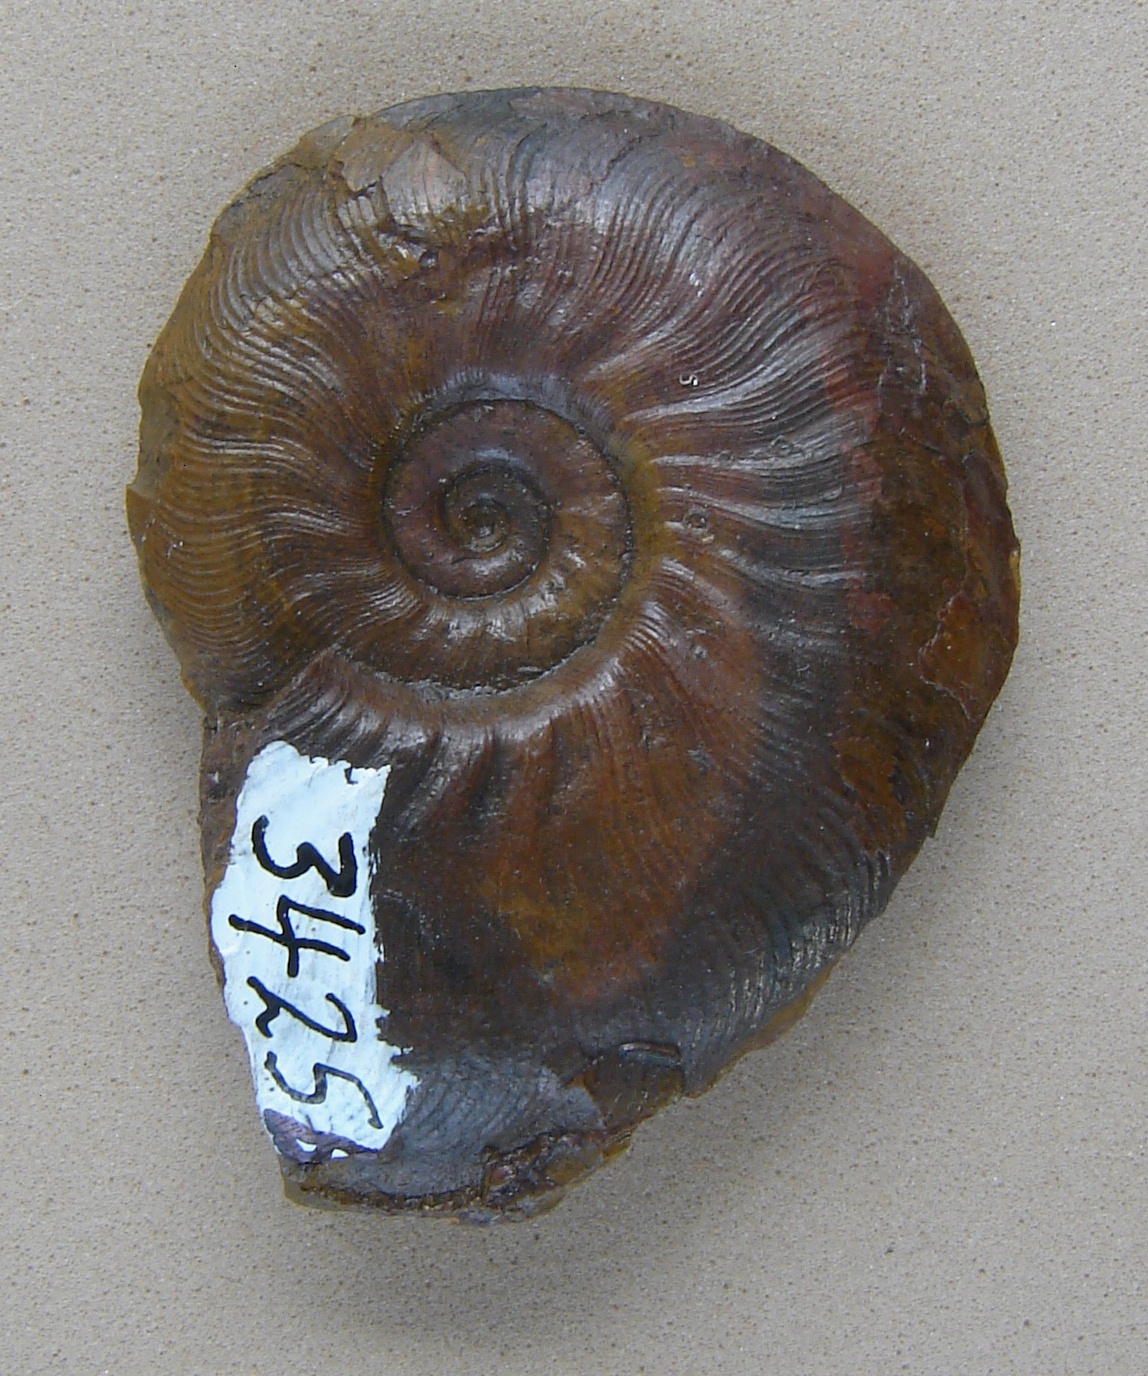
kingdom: Animalia
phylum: Mollusca
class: Cephalopoda
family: Hildoceratidae
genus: Pleydellia
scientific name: Pleydellia Cotteswoldia subcompta
